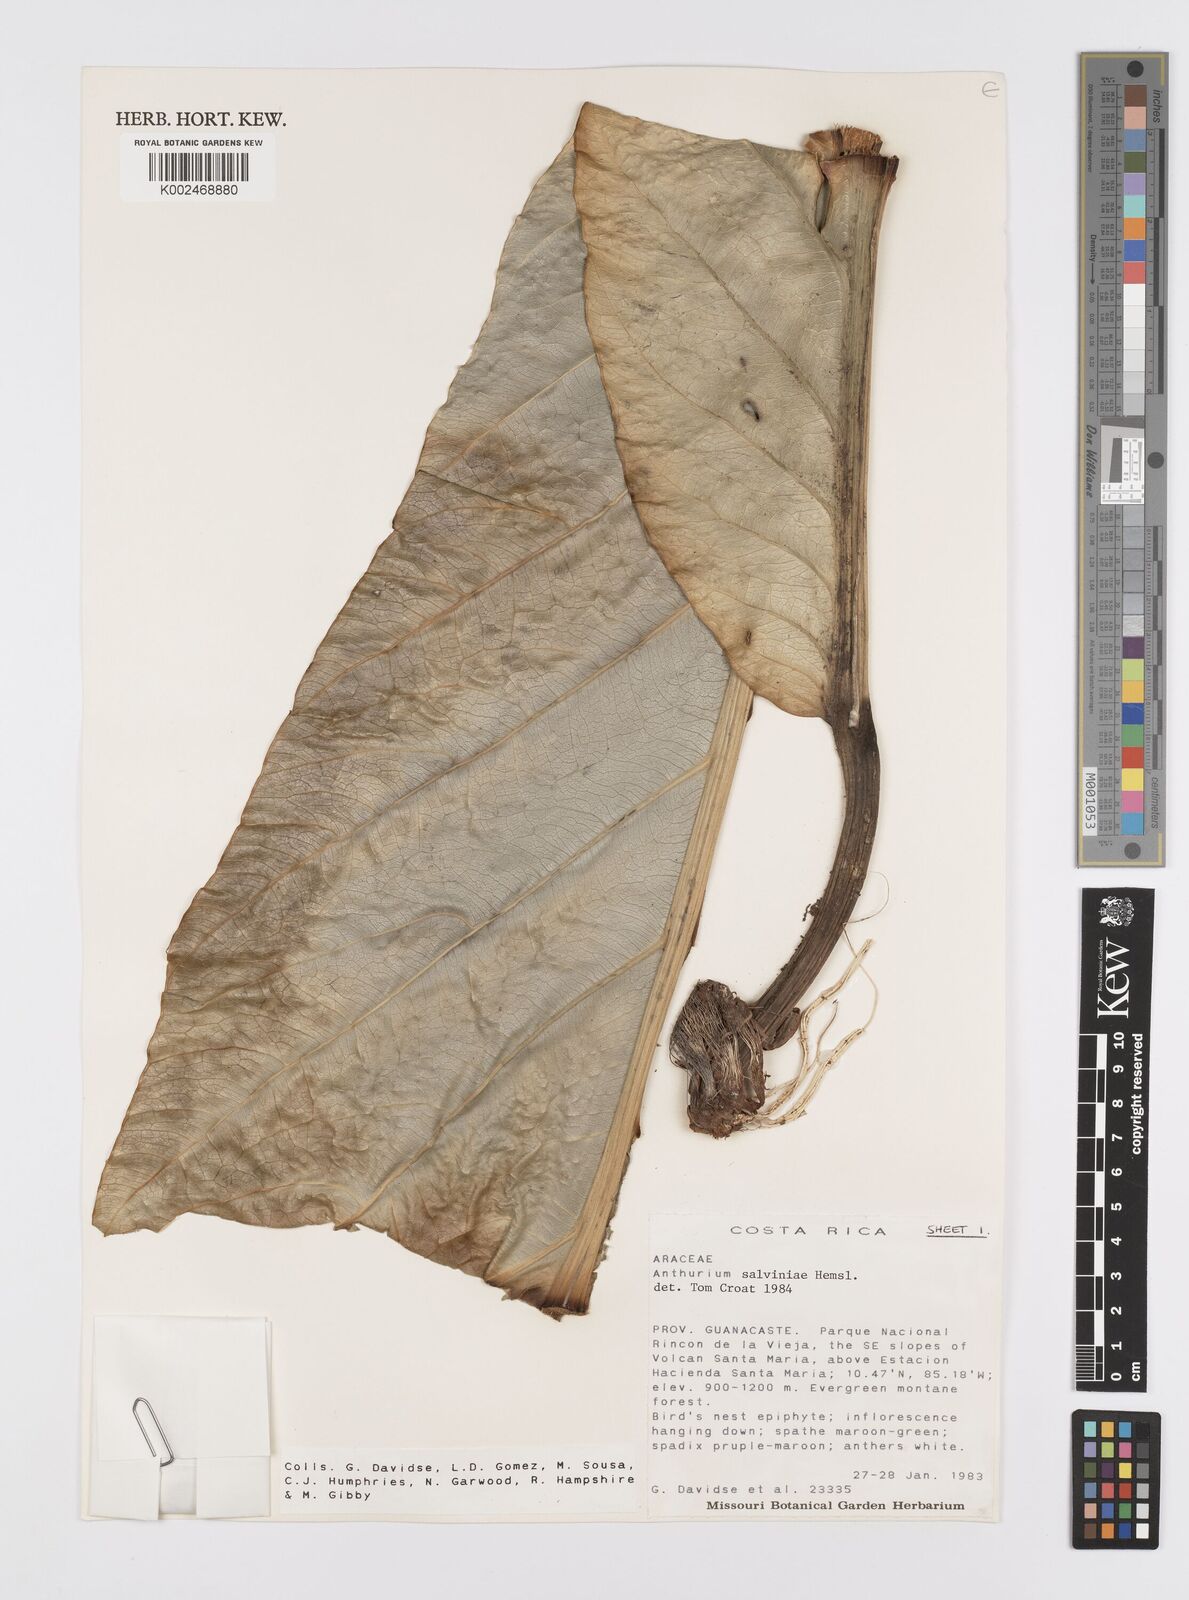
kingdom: Plantae
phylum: Tracheophyta
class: Liliopsida
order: Alismatales
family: Araceae
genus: Anthurium
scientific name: Anthurium salvinii
